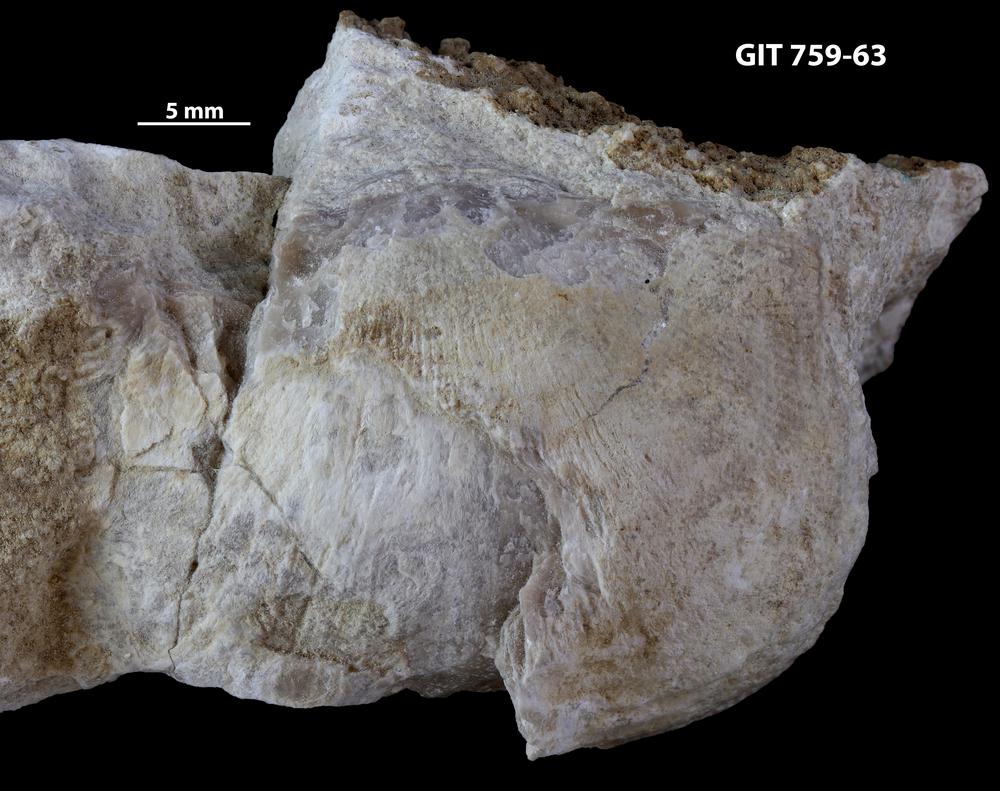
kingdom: Animalia
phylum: Brachiopoda
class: Rhynchonellata
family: Clitambonitidae
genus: Ilmarinia
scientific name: Ilmarinia ponderosa
